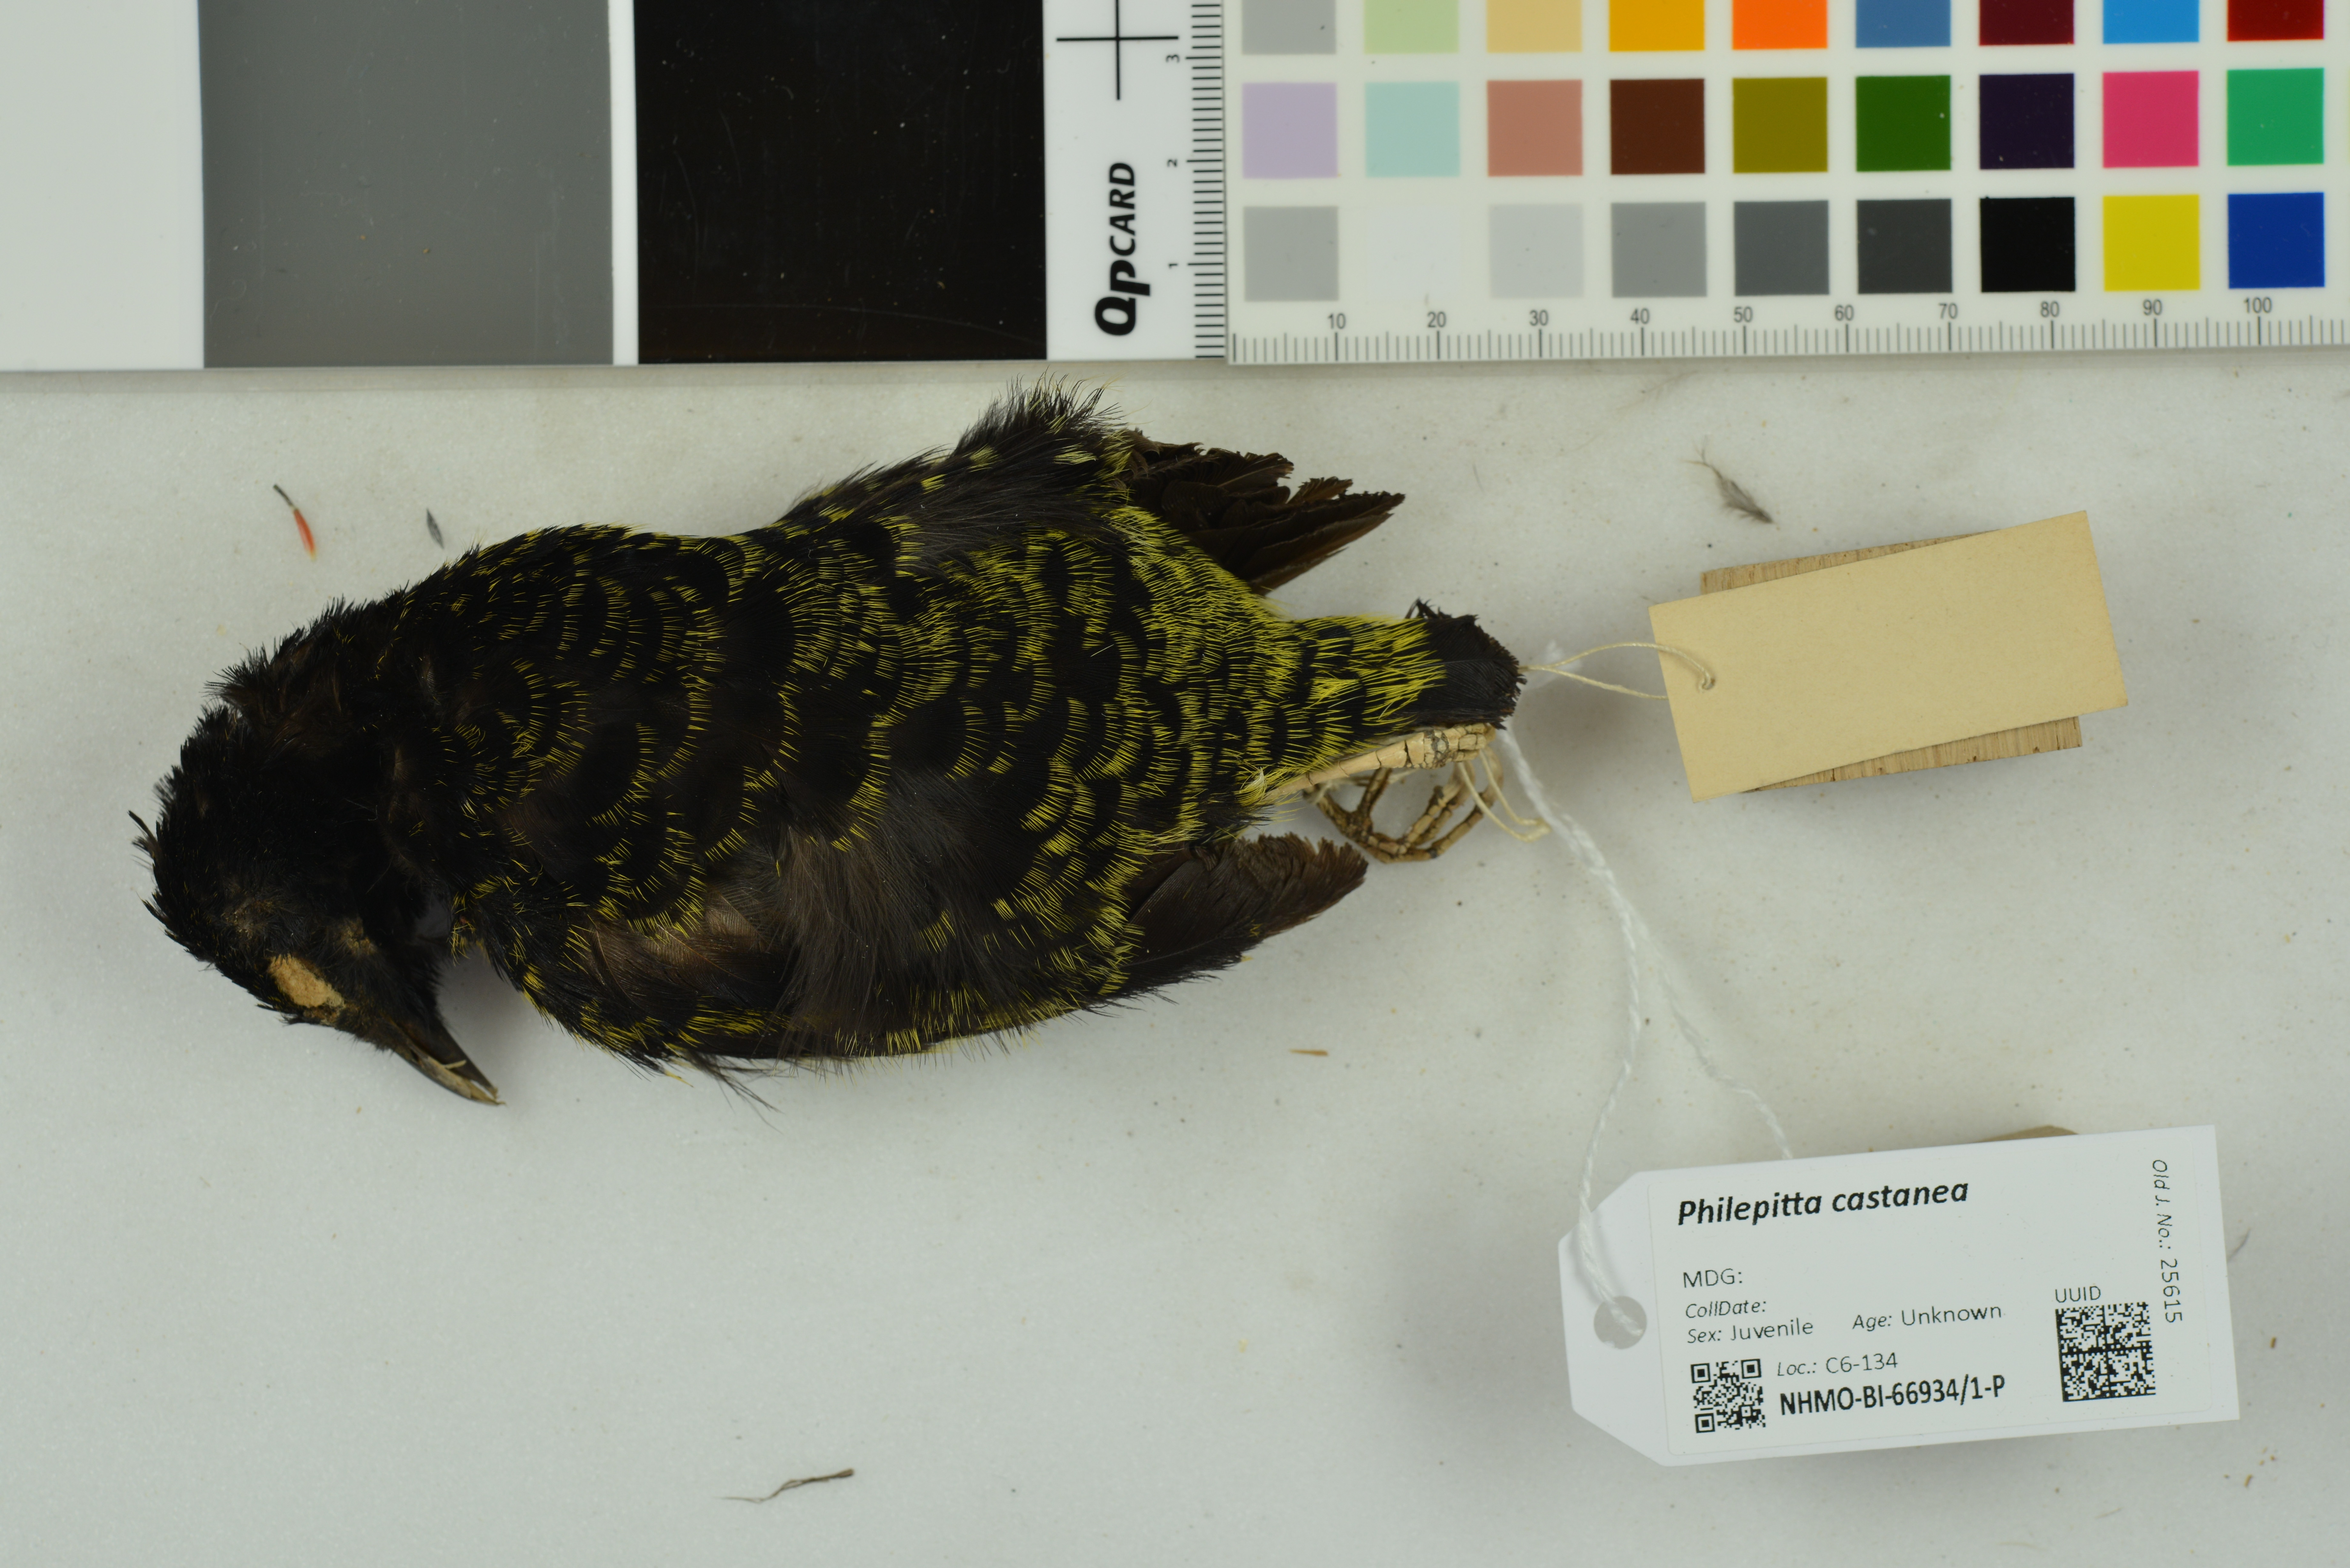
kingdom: Animalia
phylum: Chordata
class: Aves
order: Passeriformes
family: Philepittidae
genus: Philepitta
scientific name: Philepitta castanea
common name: Velvet asity
